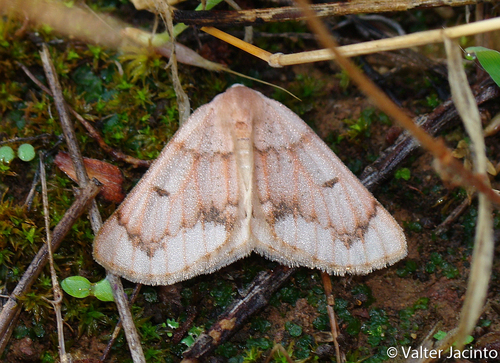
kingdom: Animalia
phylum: Arthropoda
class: Insecta
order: Lepidoptera
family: Geometridae
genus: Dyscia
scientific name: Dyscia penulataria
